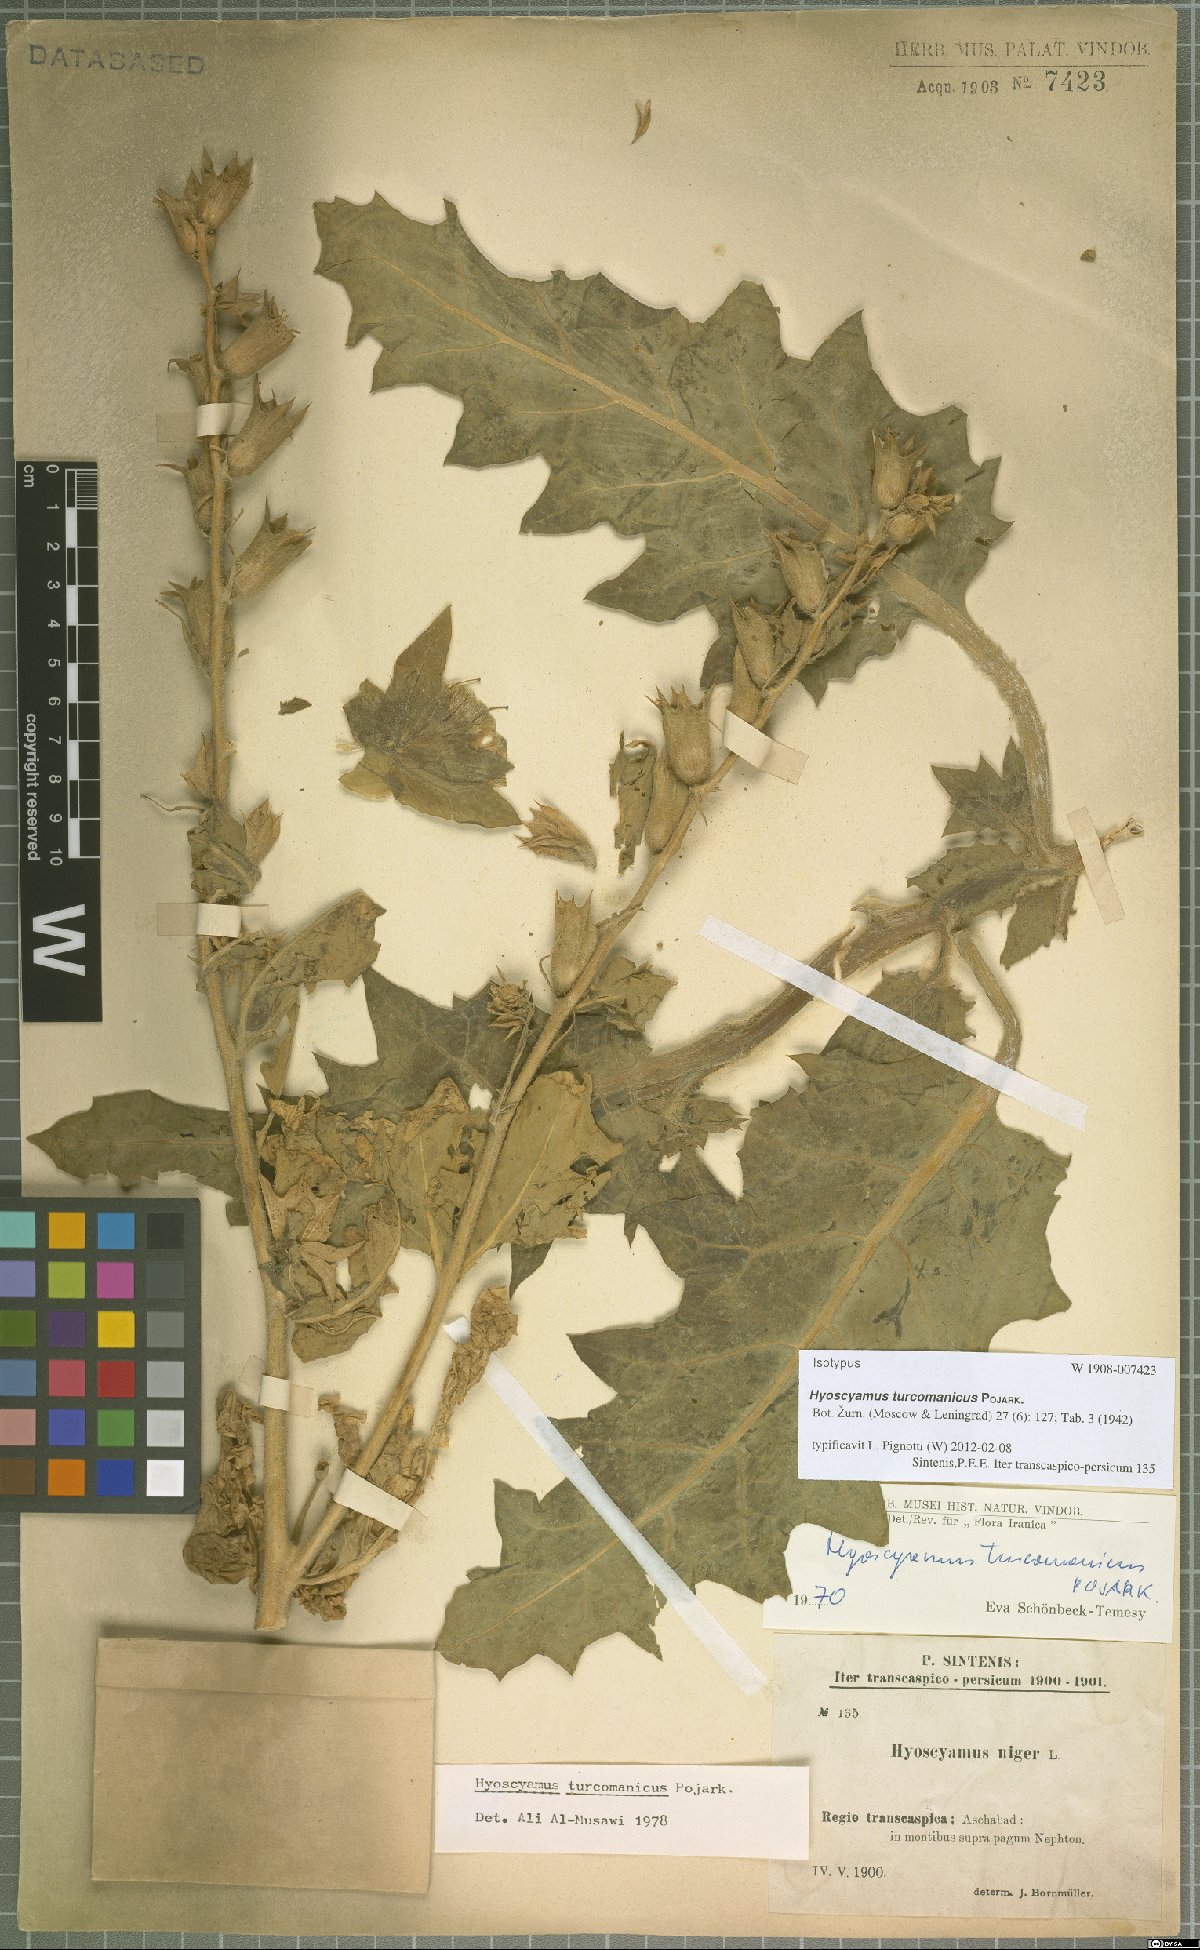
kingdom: Plantae
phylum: Tracheophyta
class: Magnoliopsida
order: Solanales
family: Solanaceae
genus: Hyoscyamus
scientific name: Hyoscyamus turcomanicus
